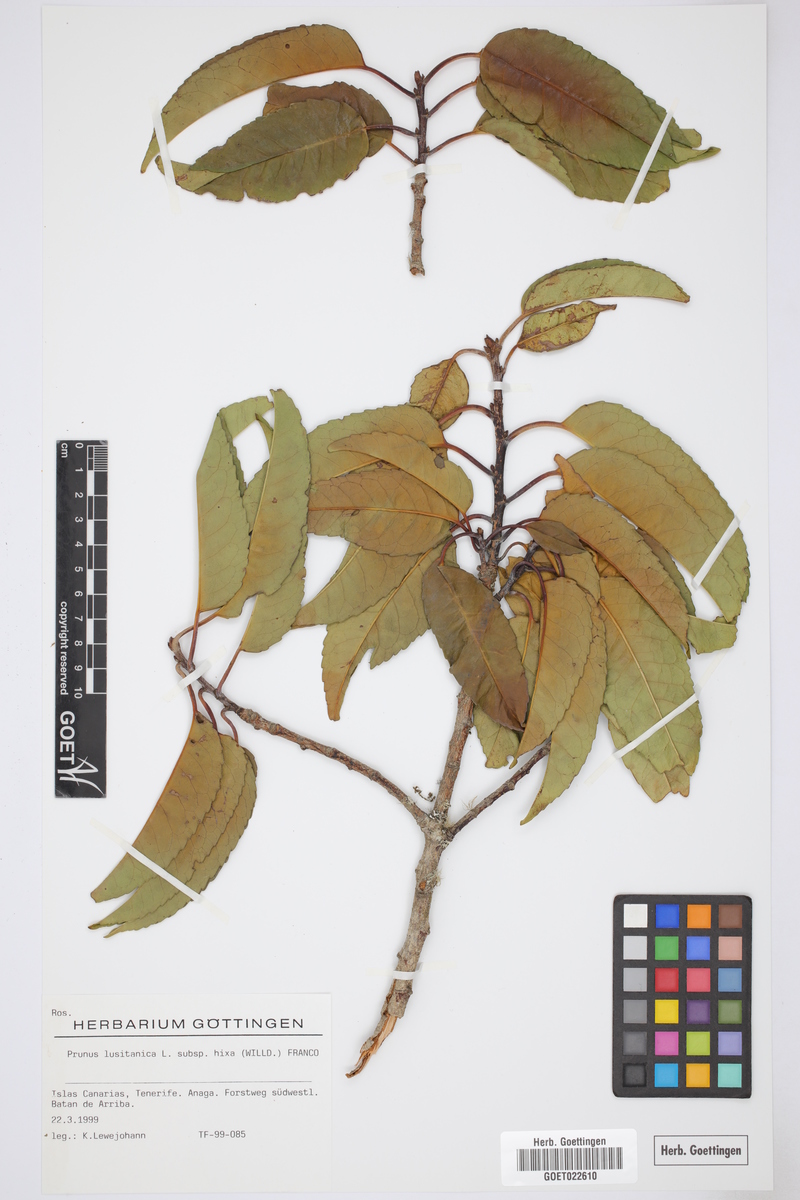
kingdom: Plantae
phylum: Tracheophyta
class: Magnoliopsida
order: Rosales
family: Rosaceae
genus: Prunus
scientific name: Prunus hixa
